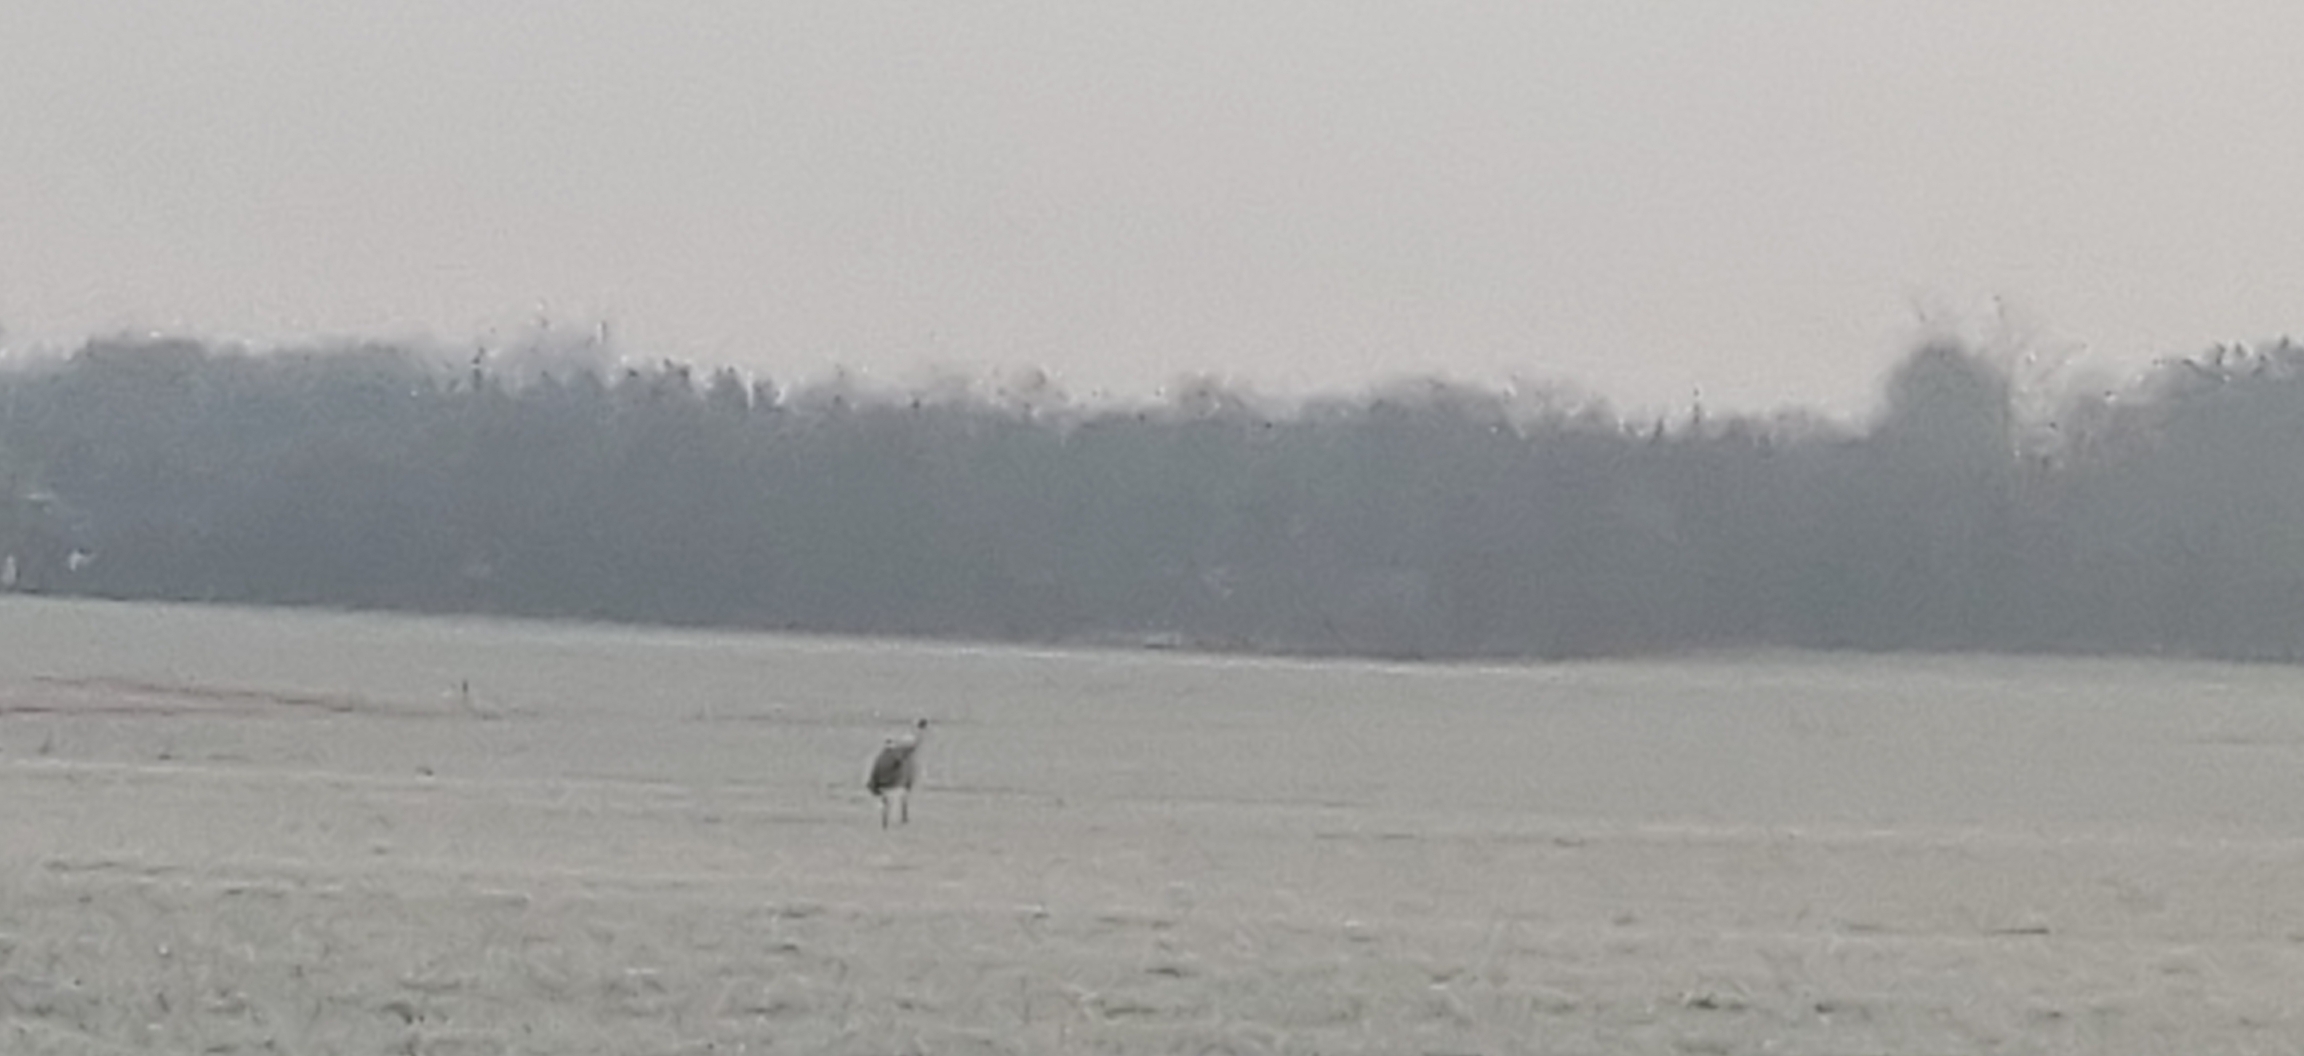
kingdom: Animalia
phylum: Chordata
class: Aves
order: Gruiformes
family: Gruidae
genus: Grus
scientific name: Grus grus
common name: Trane
